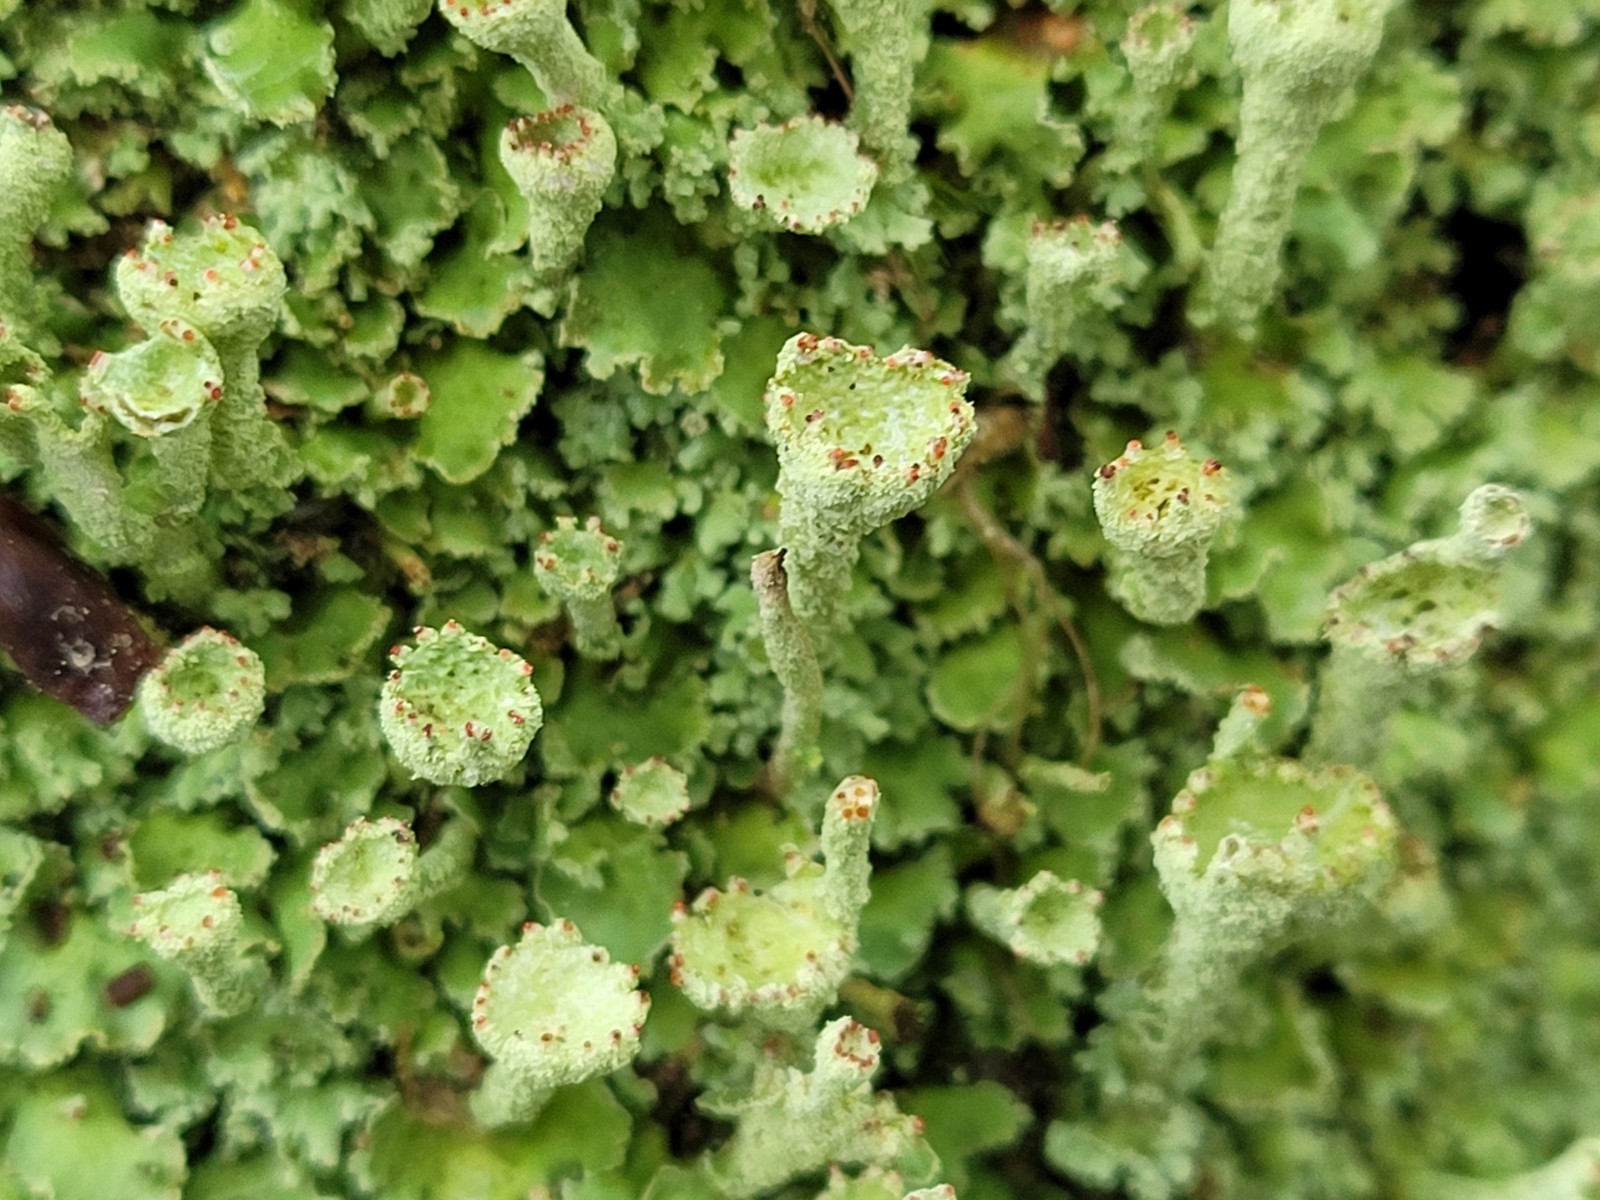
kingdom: Fungi
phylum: Ascomycota
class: Lecanoromycetes
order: Lecanorales
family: Cladoniaceae
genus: Cladonia
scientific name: Cladonia digitata
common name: finger-bægerlav
